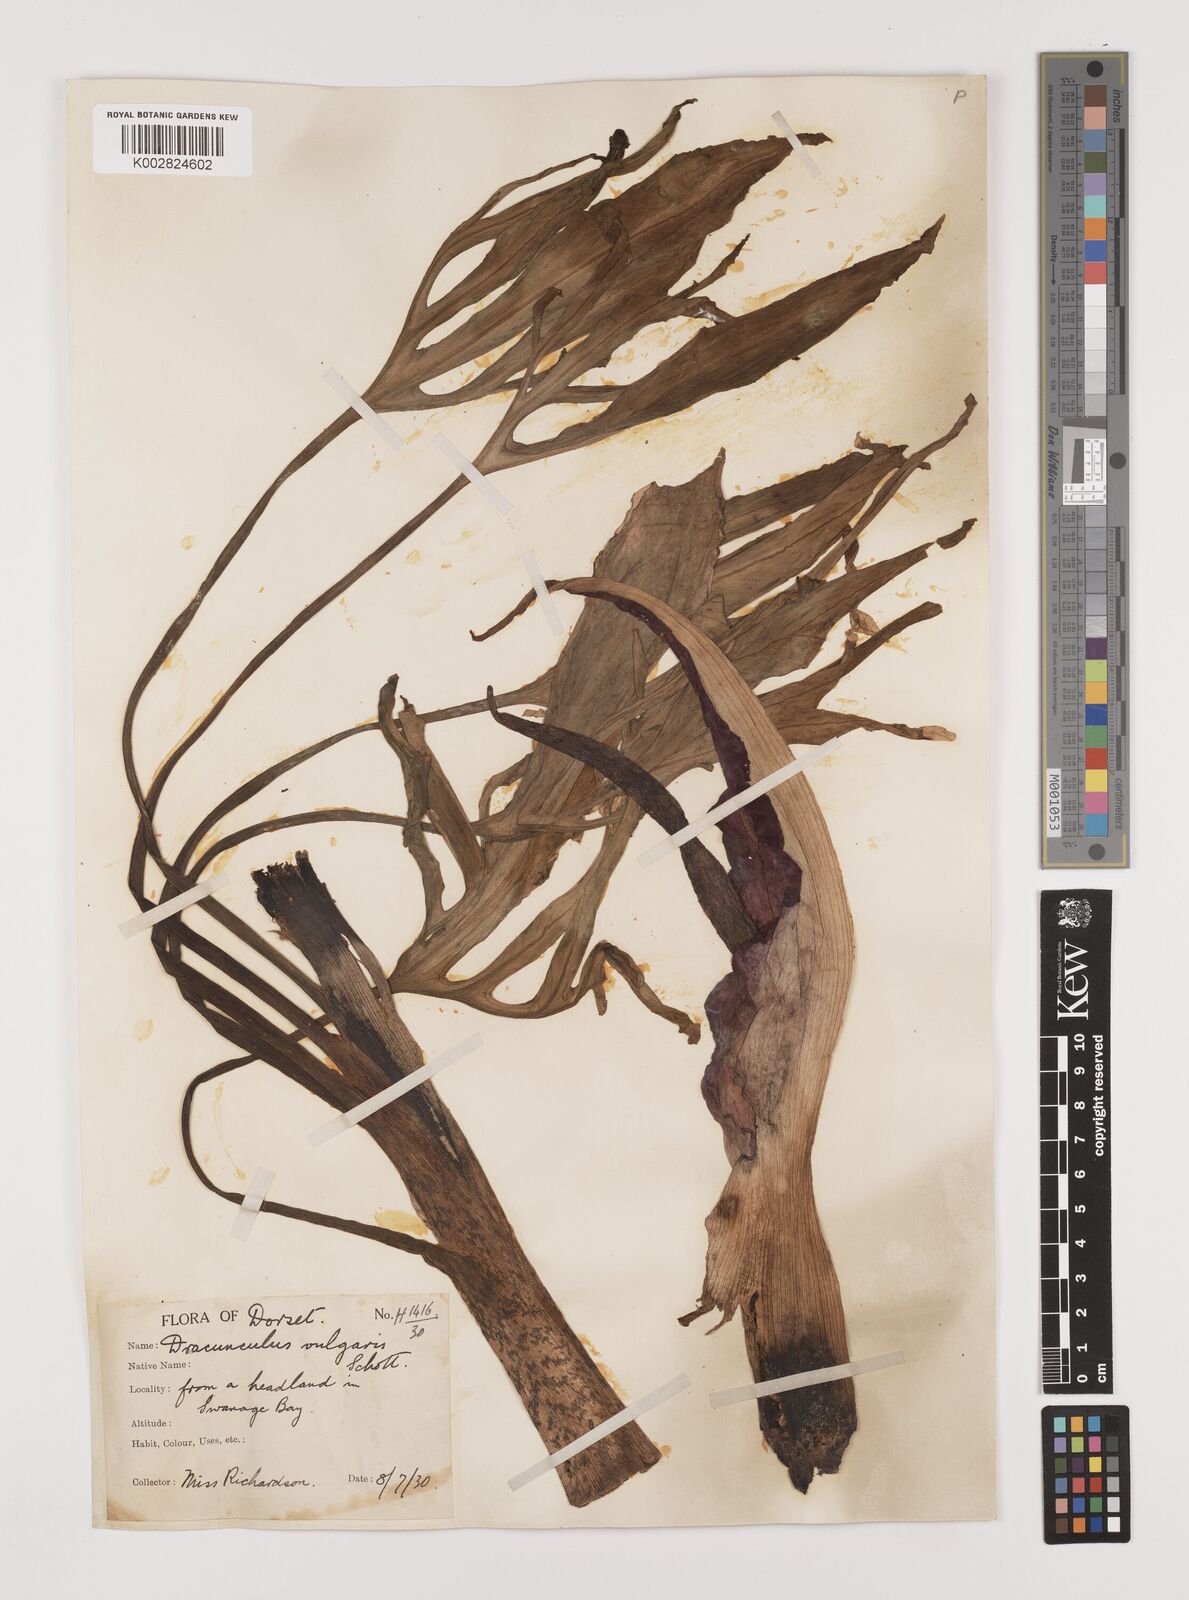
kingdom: Plantae
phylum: Tracheophyta
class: Liliopsida
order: Alismatales
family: Araceae
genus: Dracunculus
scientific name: Dracunculus vulgaris
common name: Dragon arum
